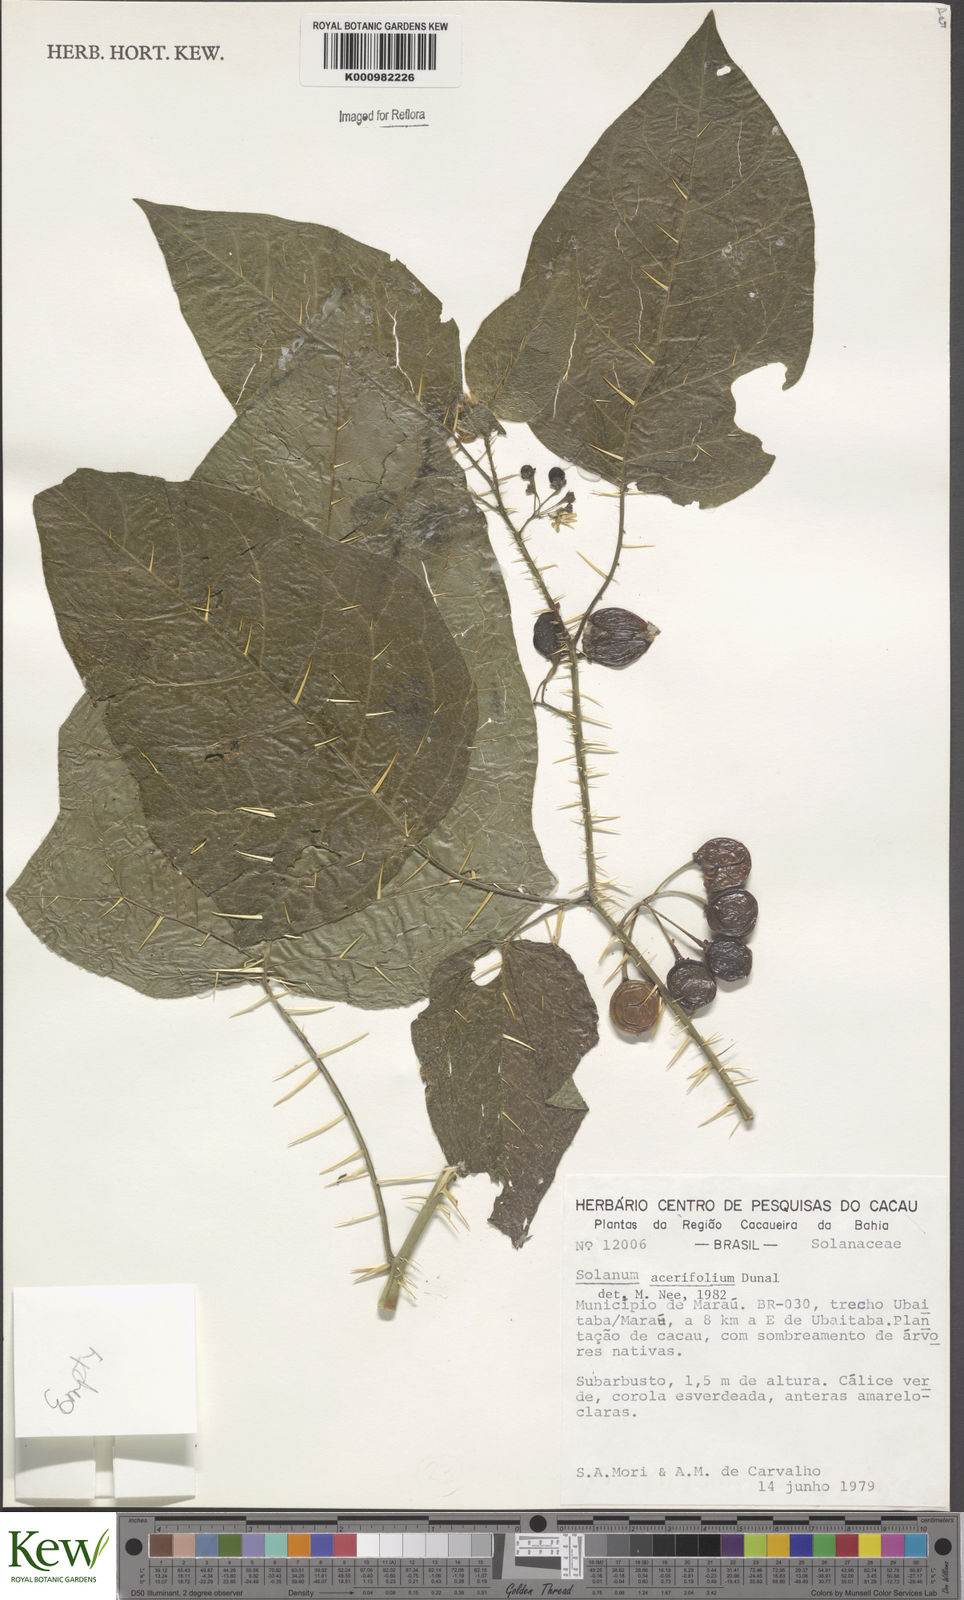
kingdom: Plantae
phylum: Tracheophyta
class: Magnoliopsida
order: Solanales
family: Solanaceae
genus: Solanum
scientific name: Solanum acerifolium
